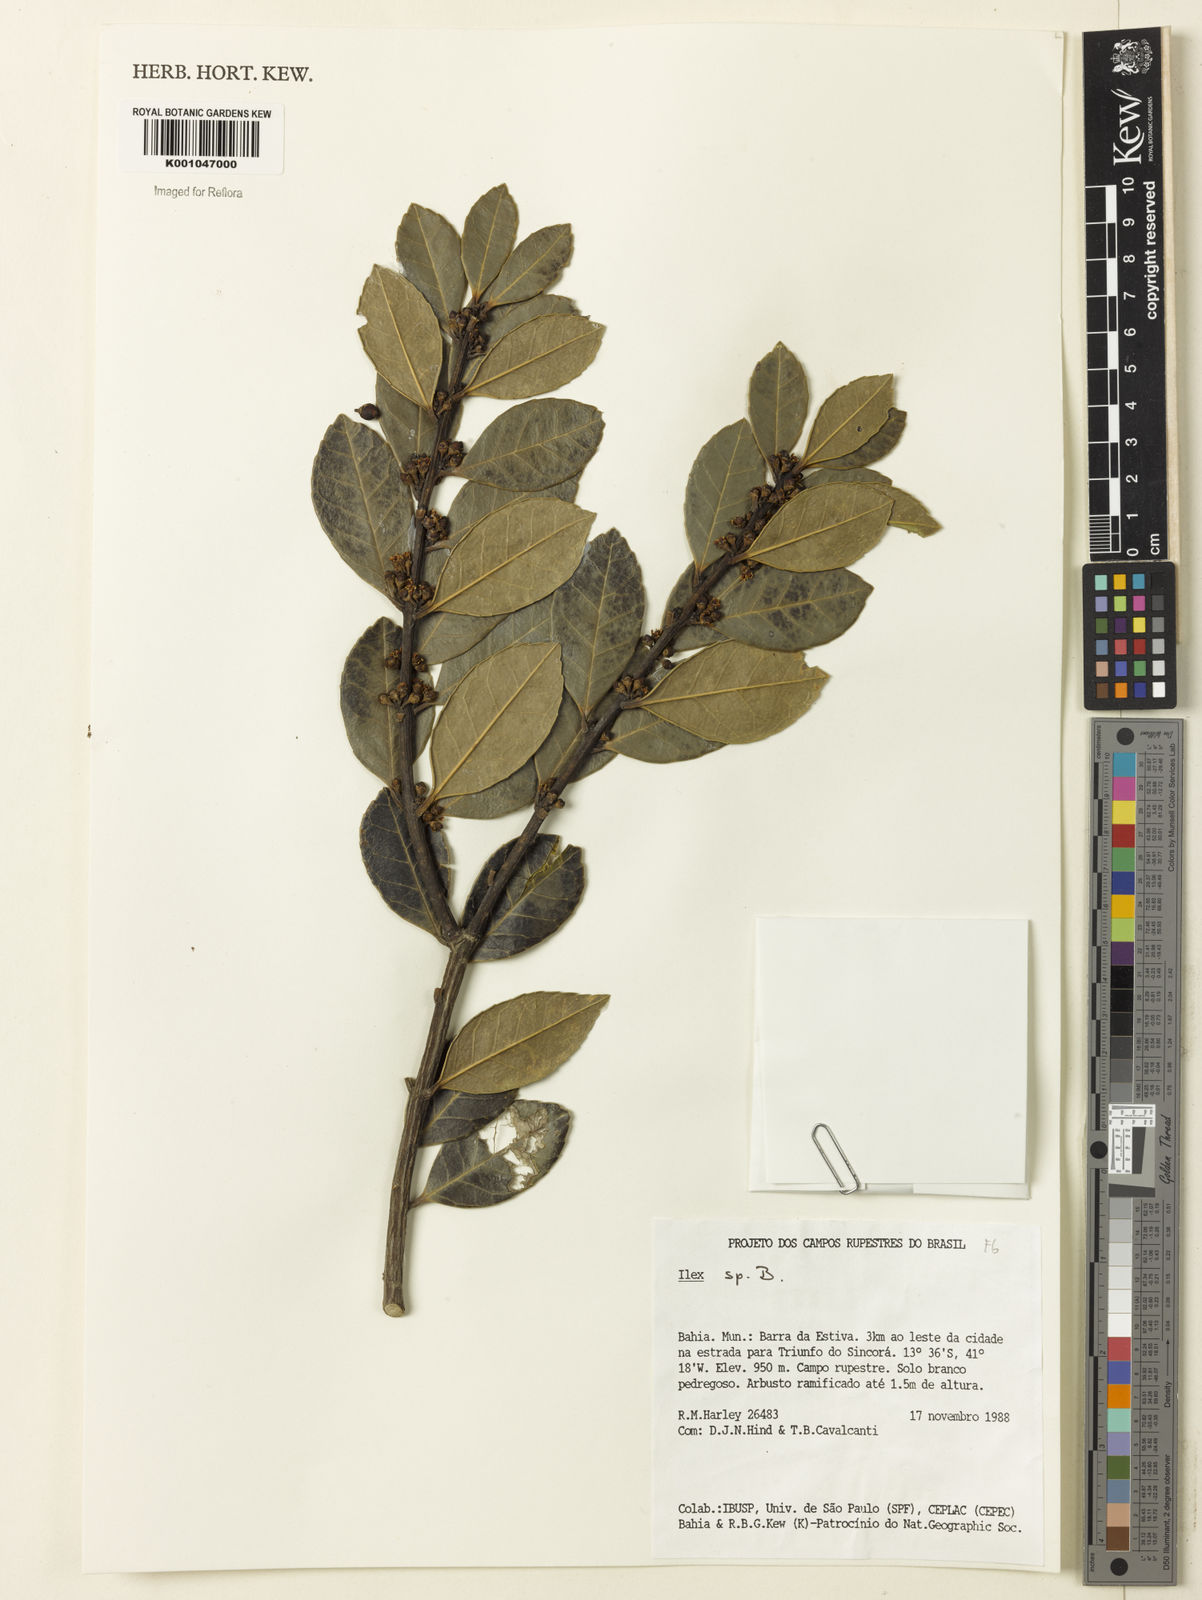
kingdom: Plantae
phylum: Tracheophyta
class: Magnoliopsida
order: Aquifoliales
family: Aquifoliaceae
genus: Ilex
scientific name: Ilex
